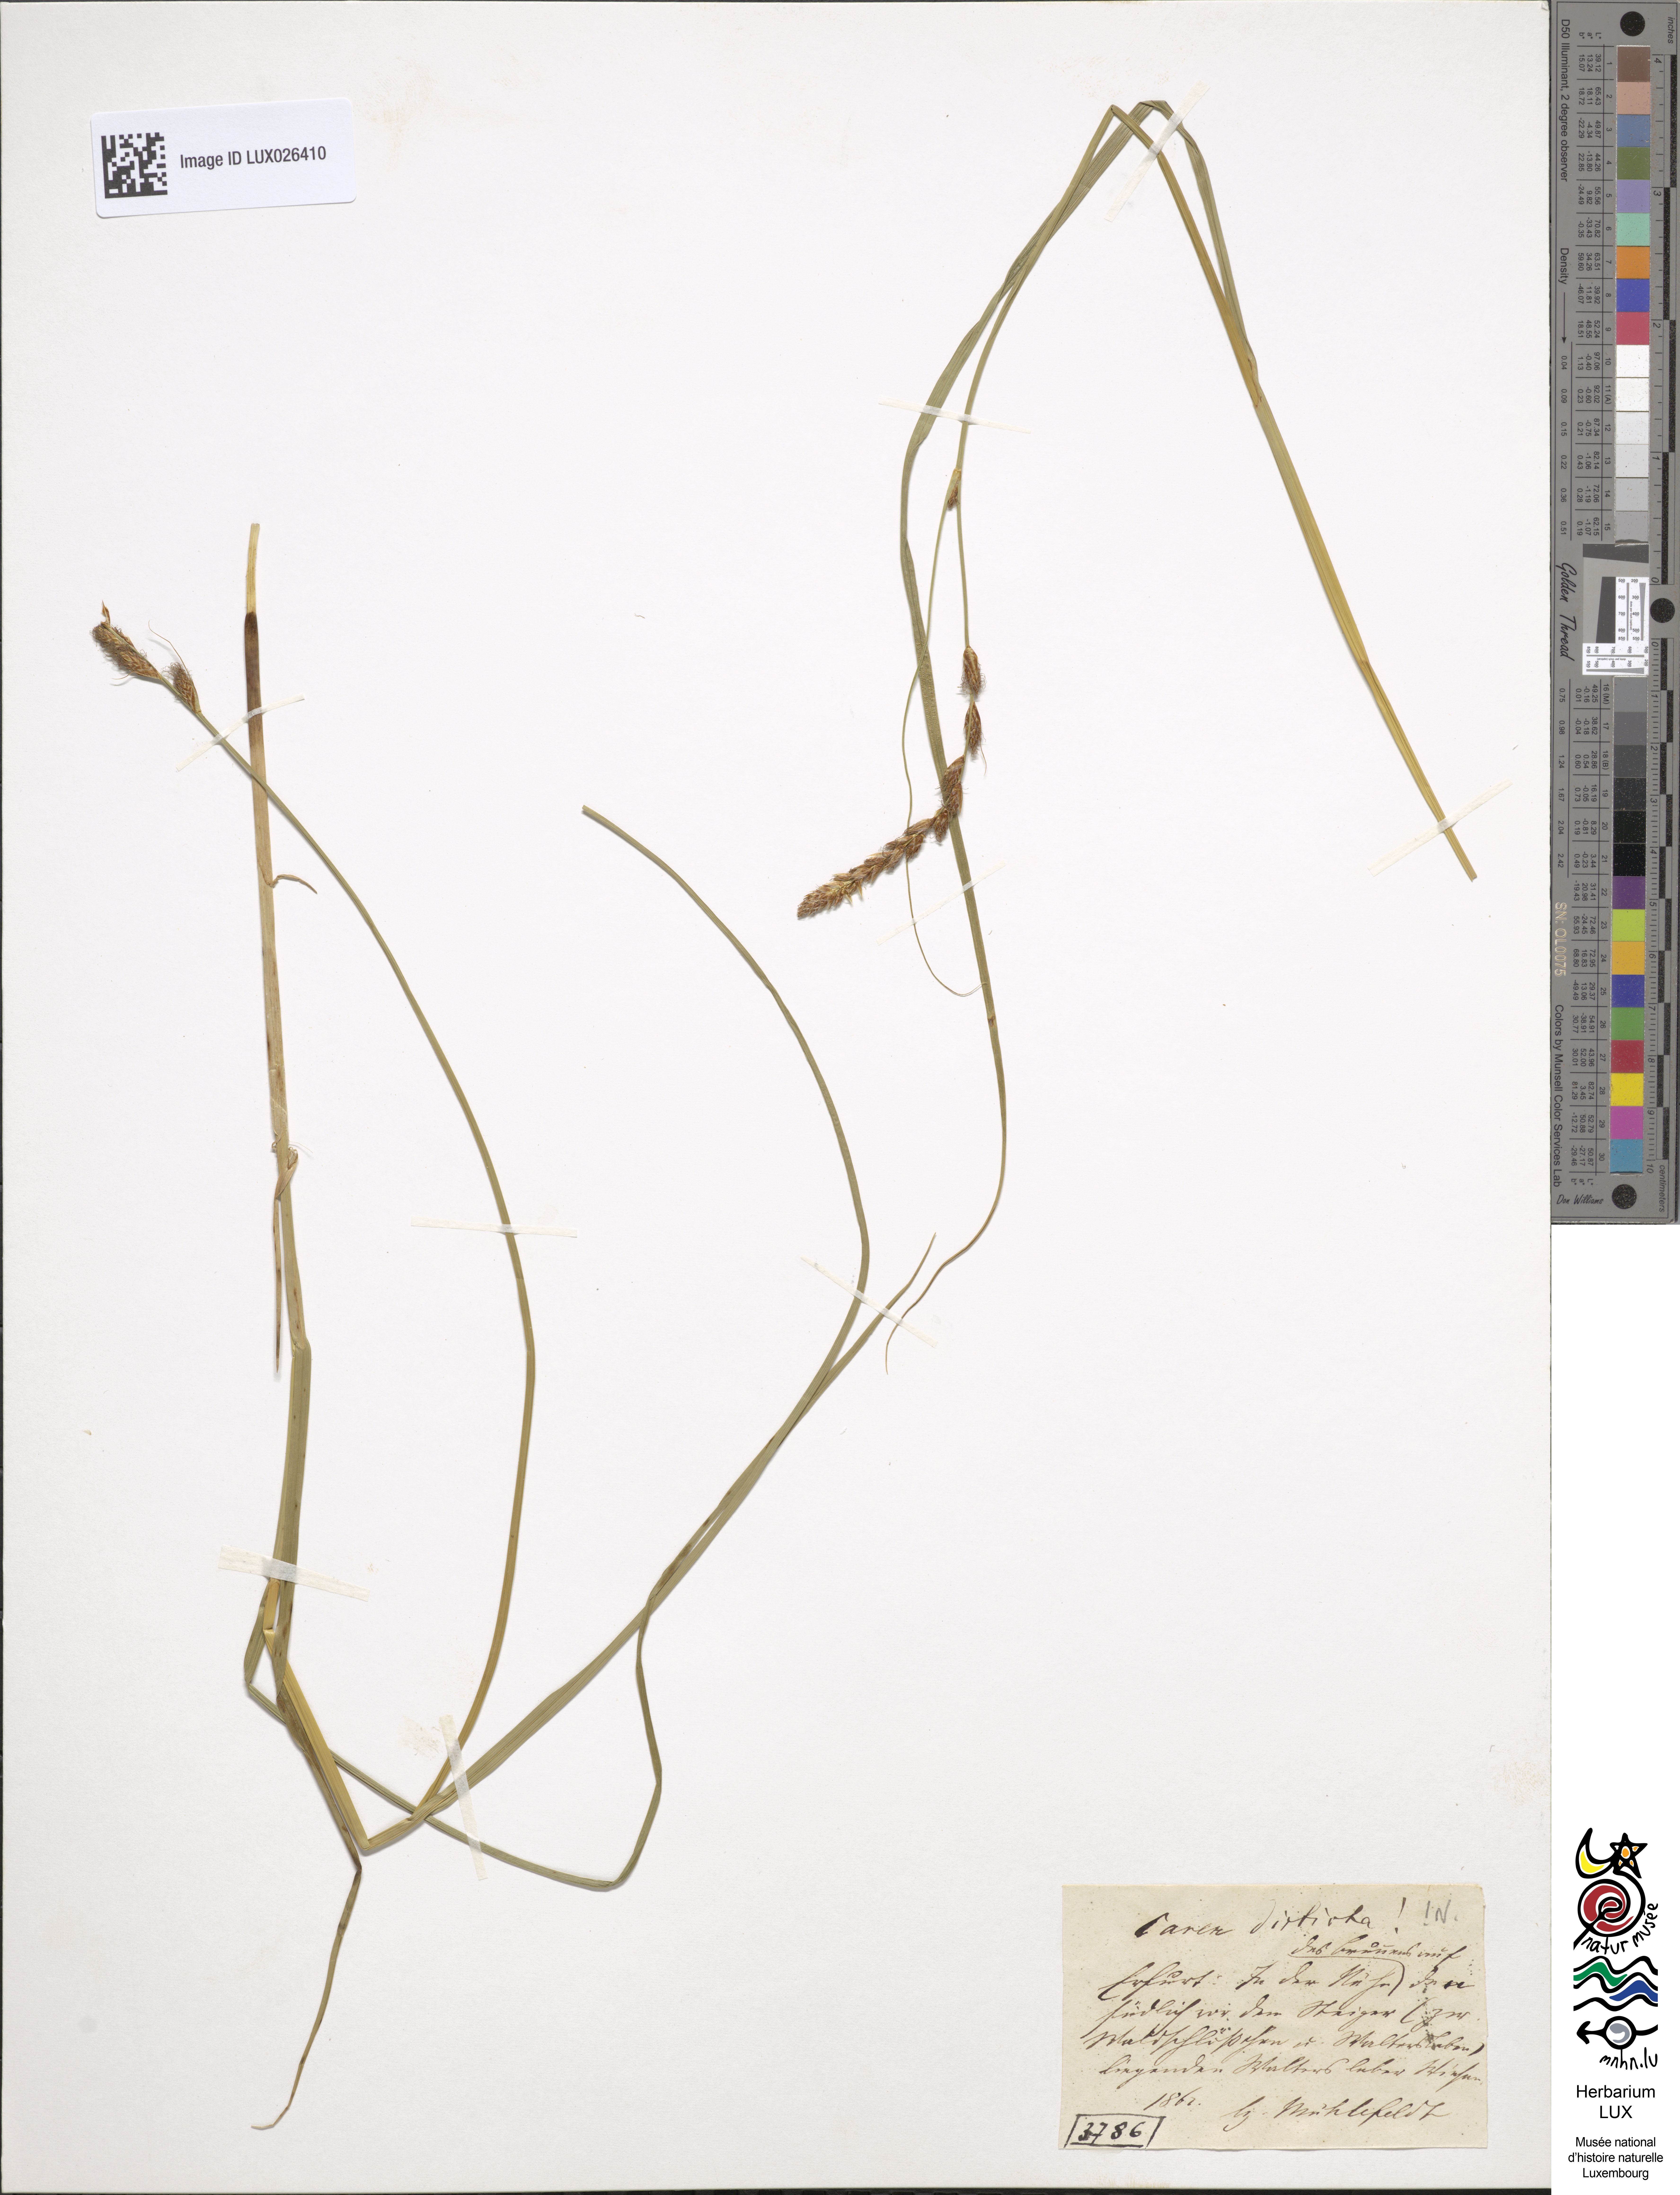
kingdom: Plantae
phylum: Tracheophyta
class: Liliopsida
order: Poales
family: Cyperaceae
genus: Carex
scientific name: Carex disticha
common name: Brown sedge
